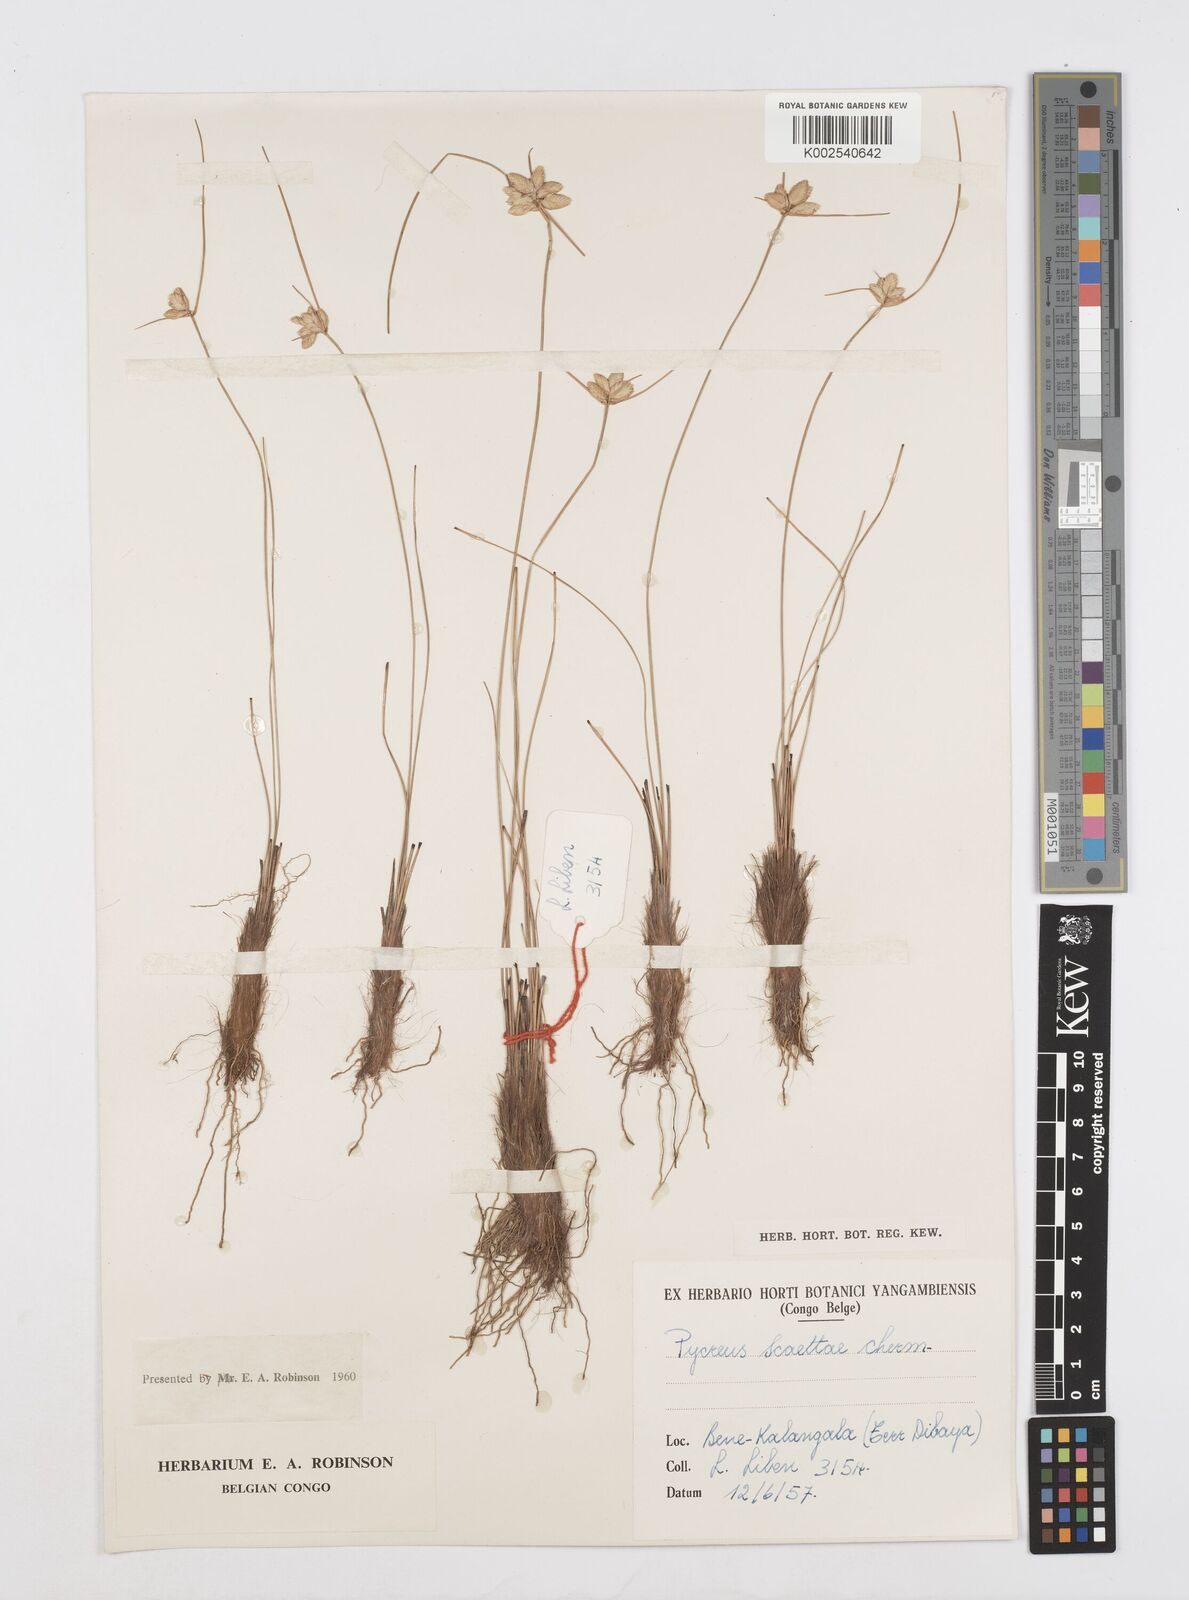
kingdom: Plantae
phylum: Tracheophyta
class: Liliopsida
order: Poales
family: Cyperaceae
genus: Cyperus
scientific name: Cyperus scaettae
